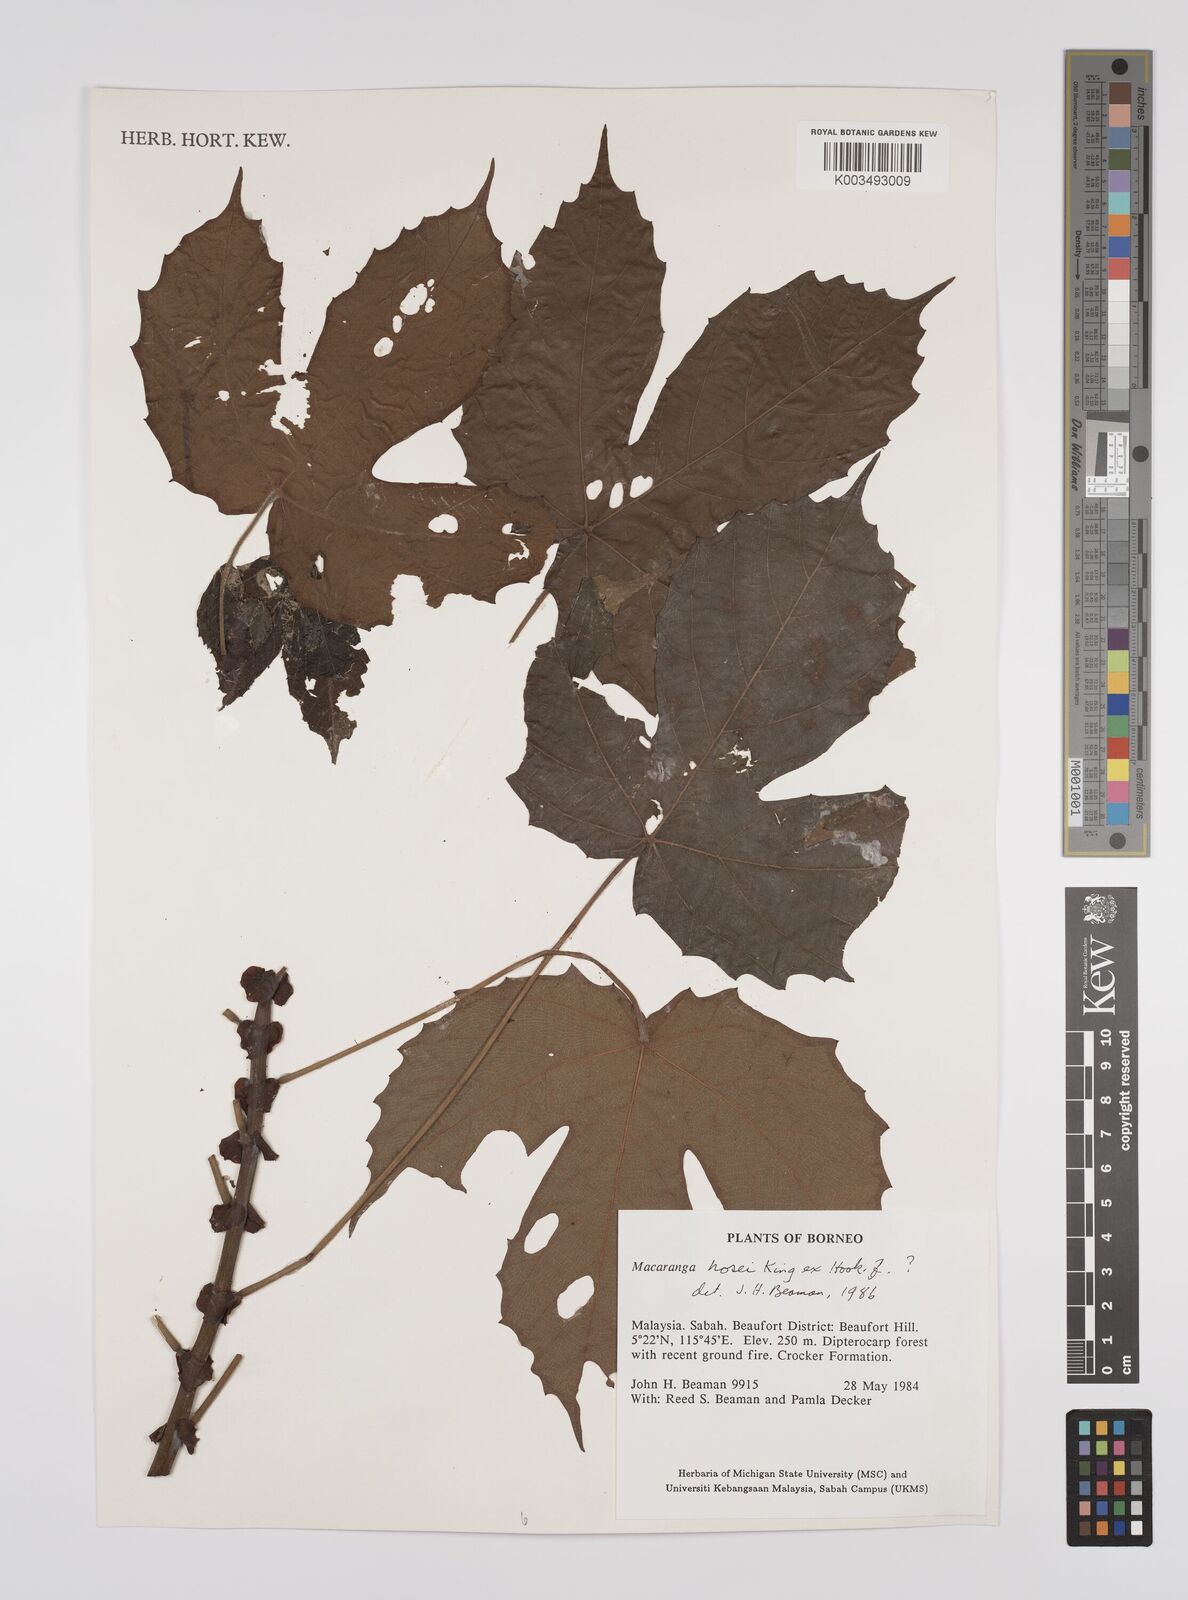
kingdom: Plantae
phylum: Tracheophyta
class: Magnoliopsida
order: Malpighiales
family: Euphorbiaceae
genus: Macaranga
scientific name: Macaranga hosei
